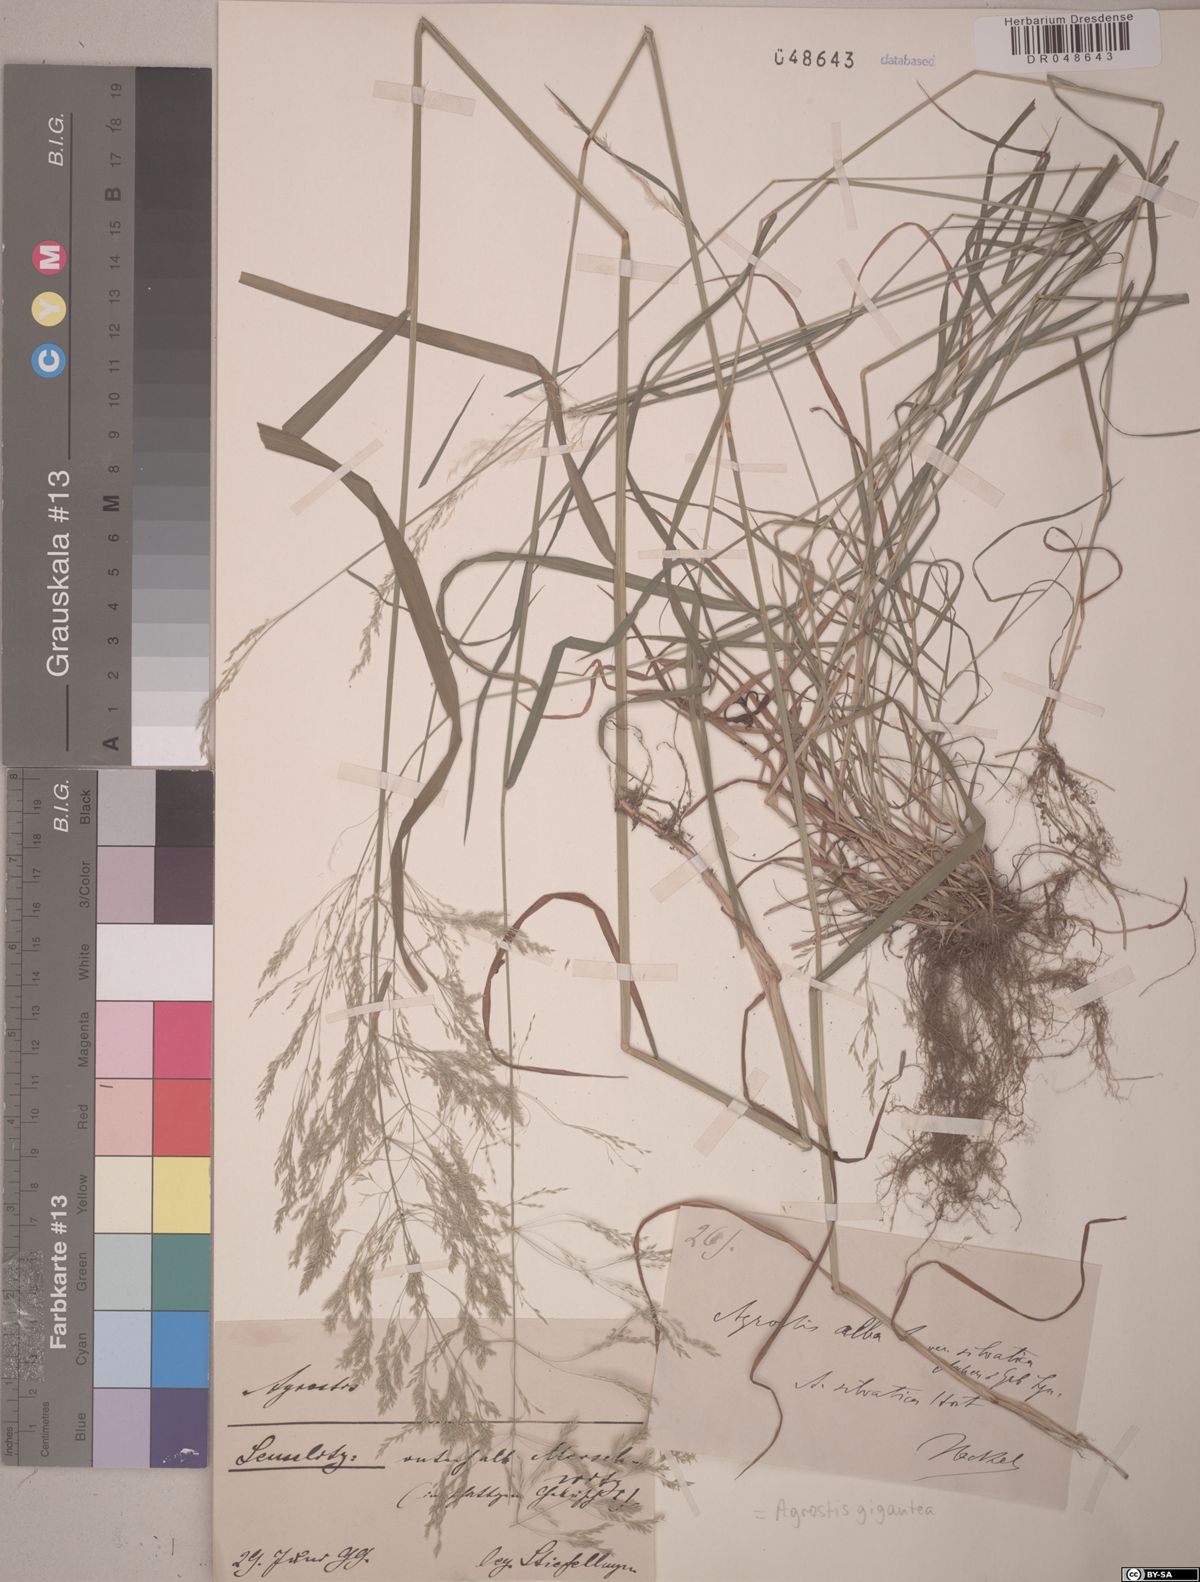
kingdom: Plantae
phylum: Tracheophyta
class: Liliopsida
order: Poales
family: Poaceae
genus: Agrostis
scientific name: Agrostis gigantea
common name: Black bent
